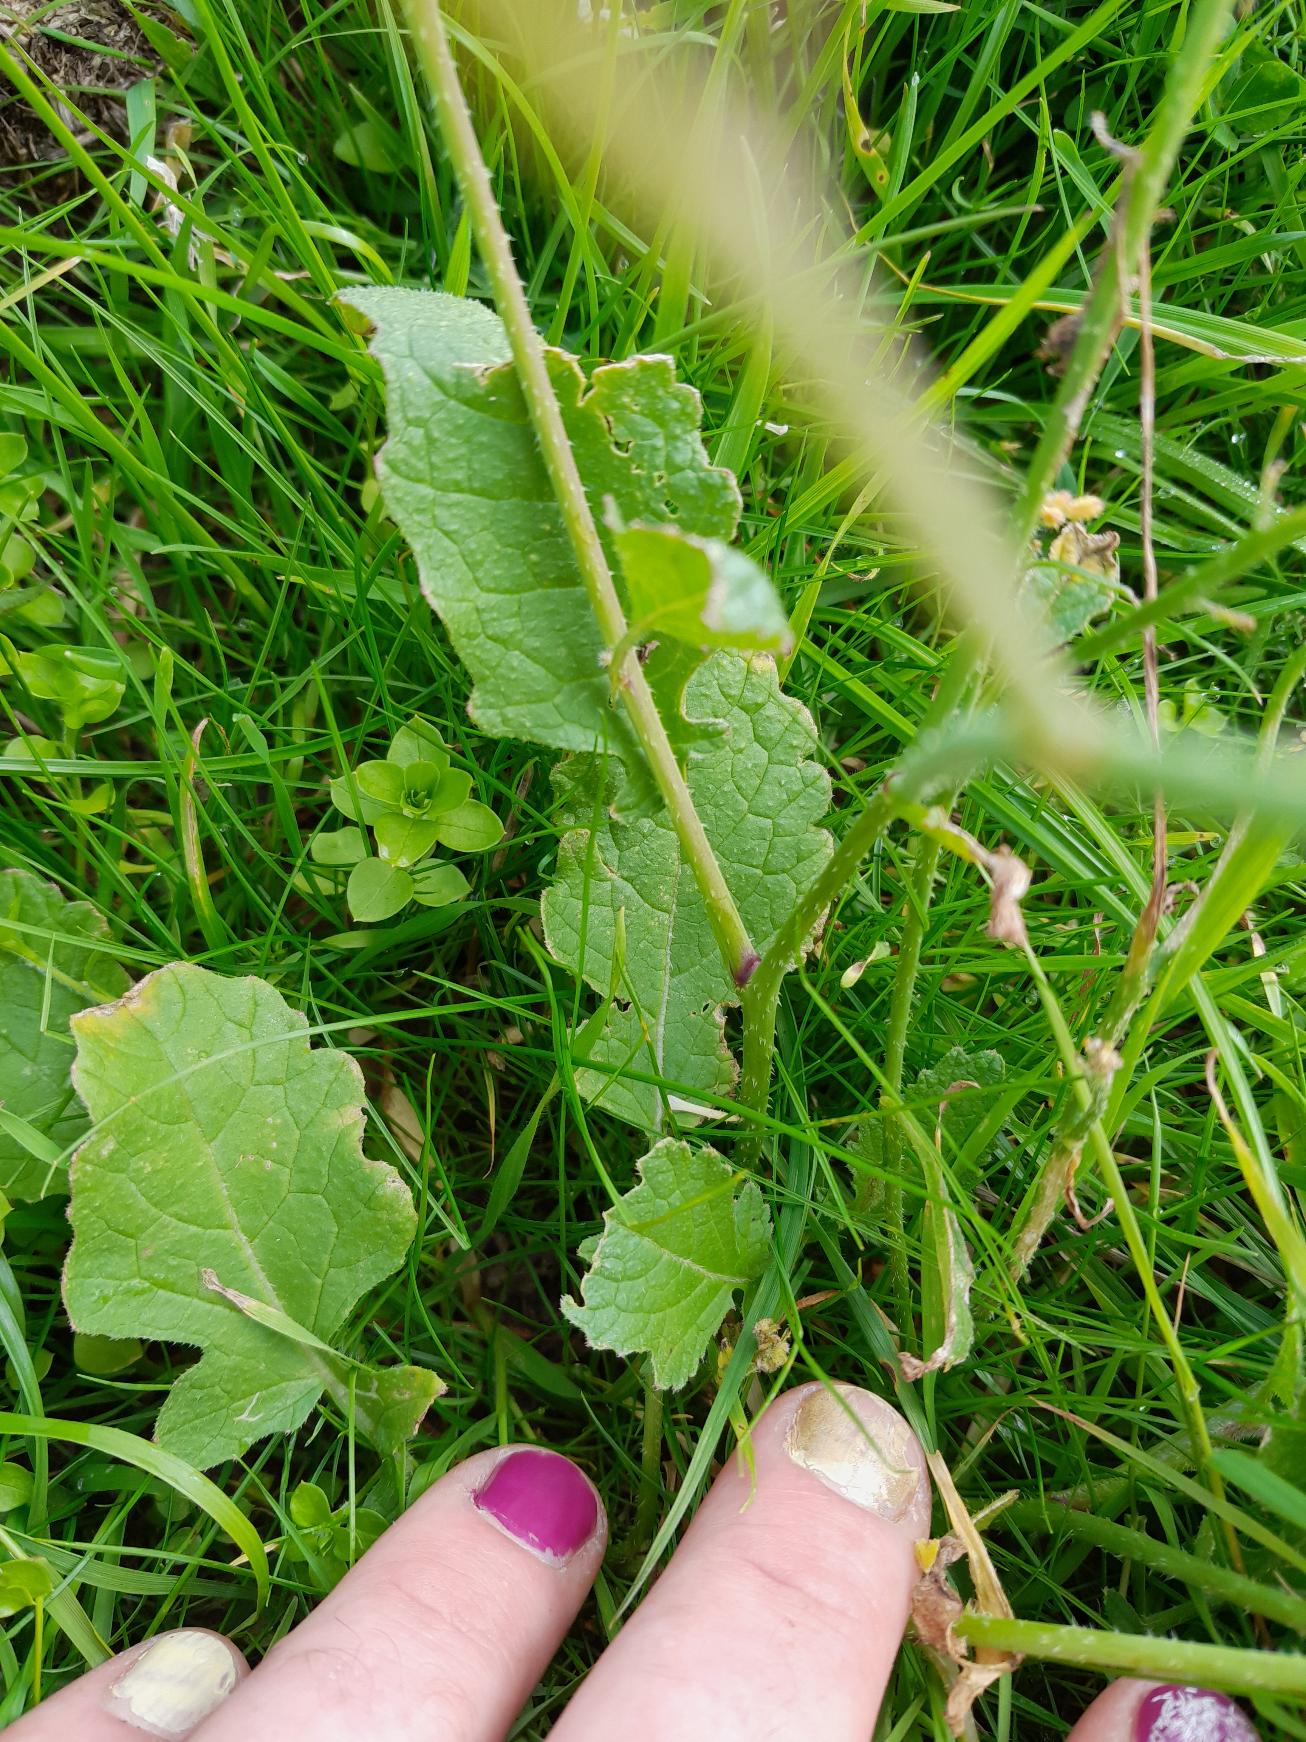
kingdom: Plantae
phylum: Tracheophyta
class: Magnoliopsida
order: Brassicales
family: Brassicaceae
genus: Raphanus
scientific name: Raphanus raphanistrum
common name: Kiddike
